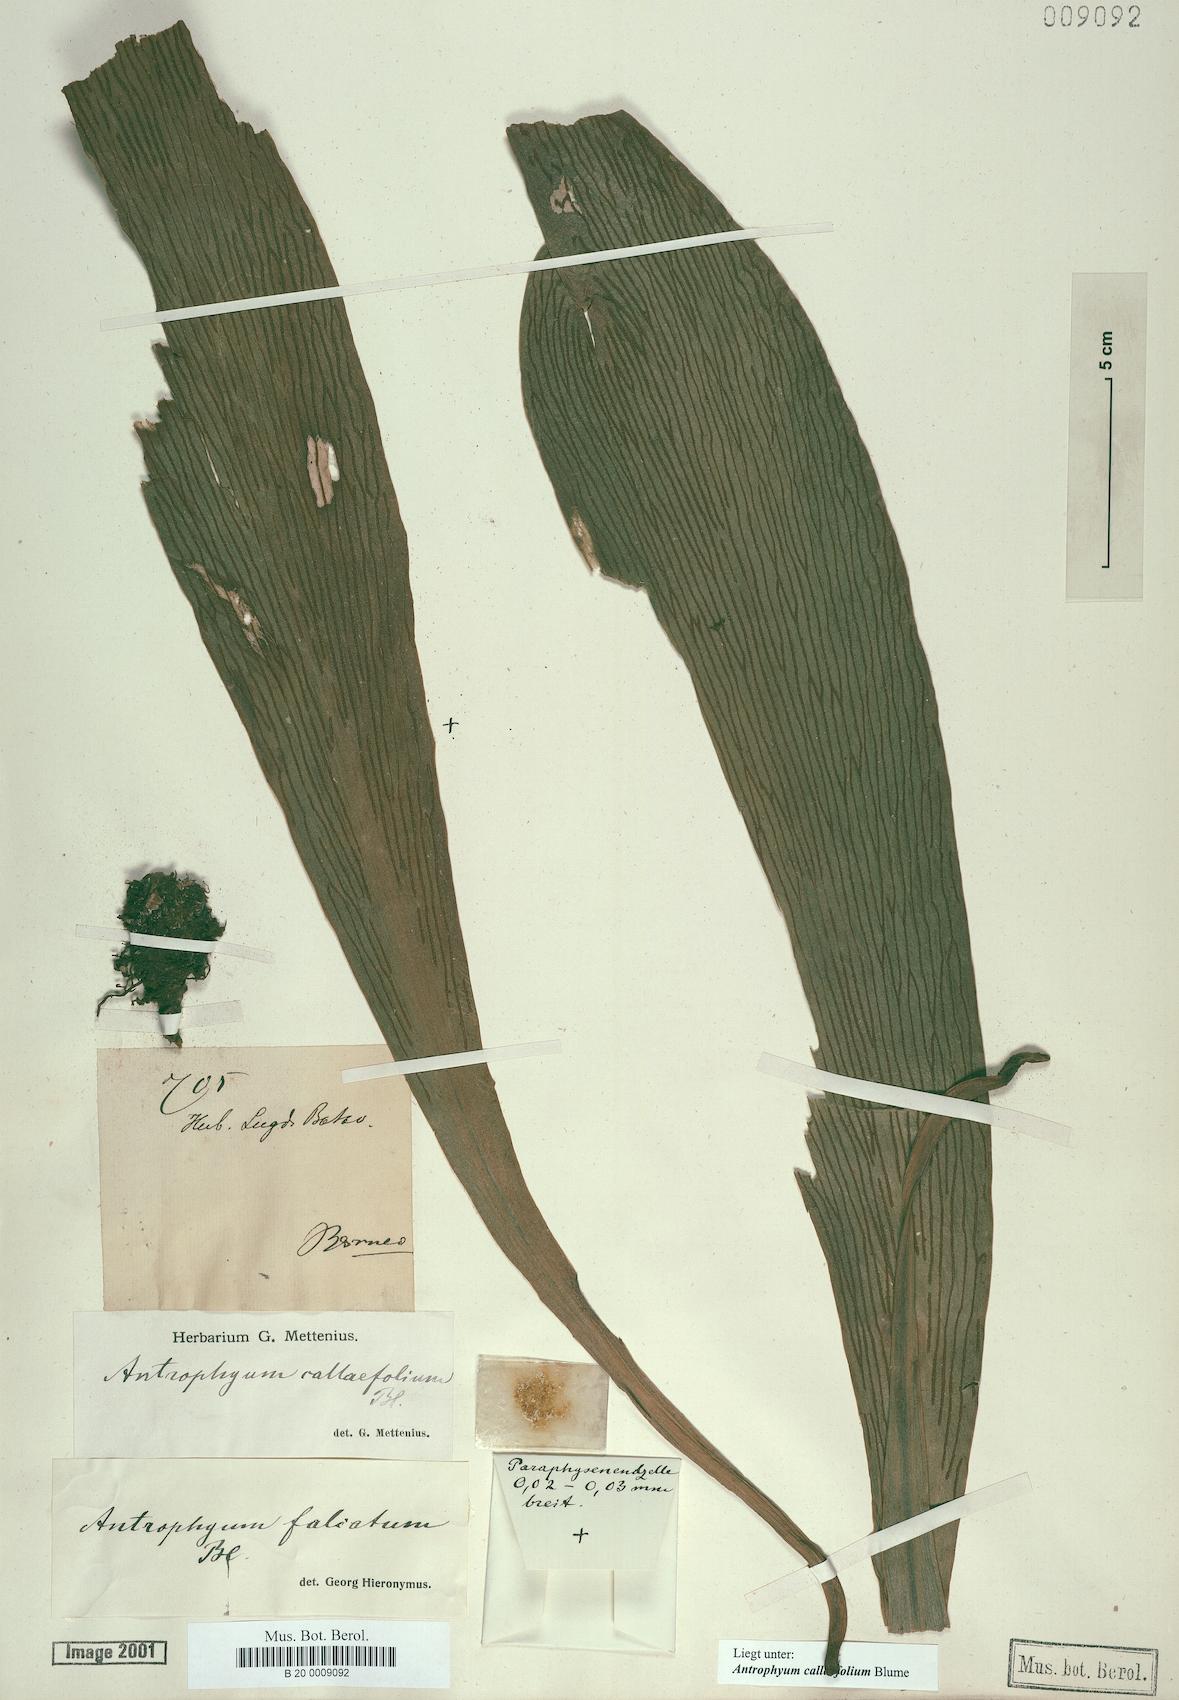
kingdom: Plantae
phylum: Tracheophyta
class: Polypodiopsida
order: Polypodiales
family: Pteridaceae
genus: Antrophyum
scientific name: Antrophyum callifolium
